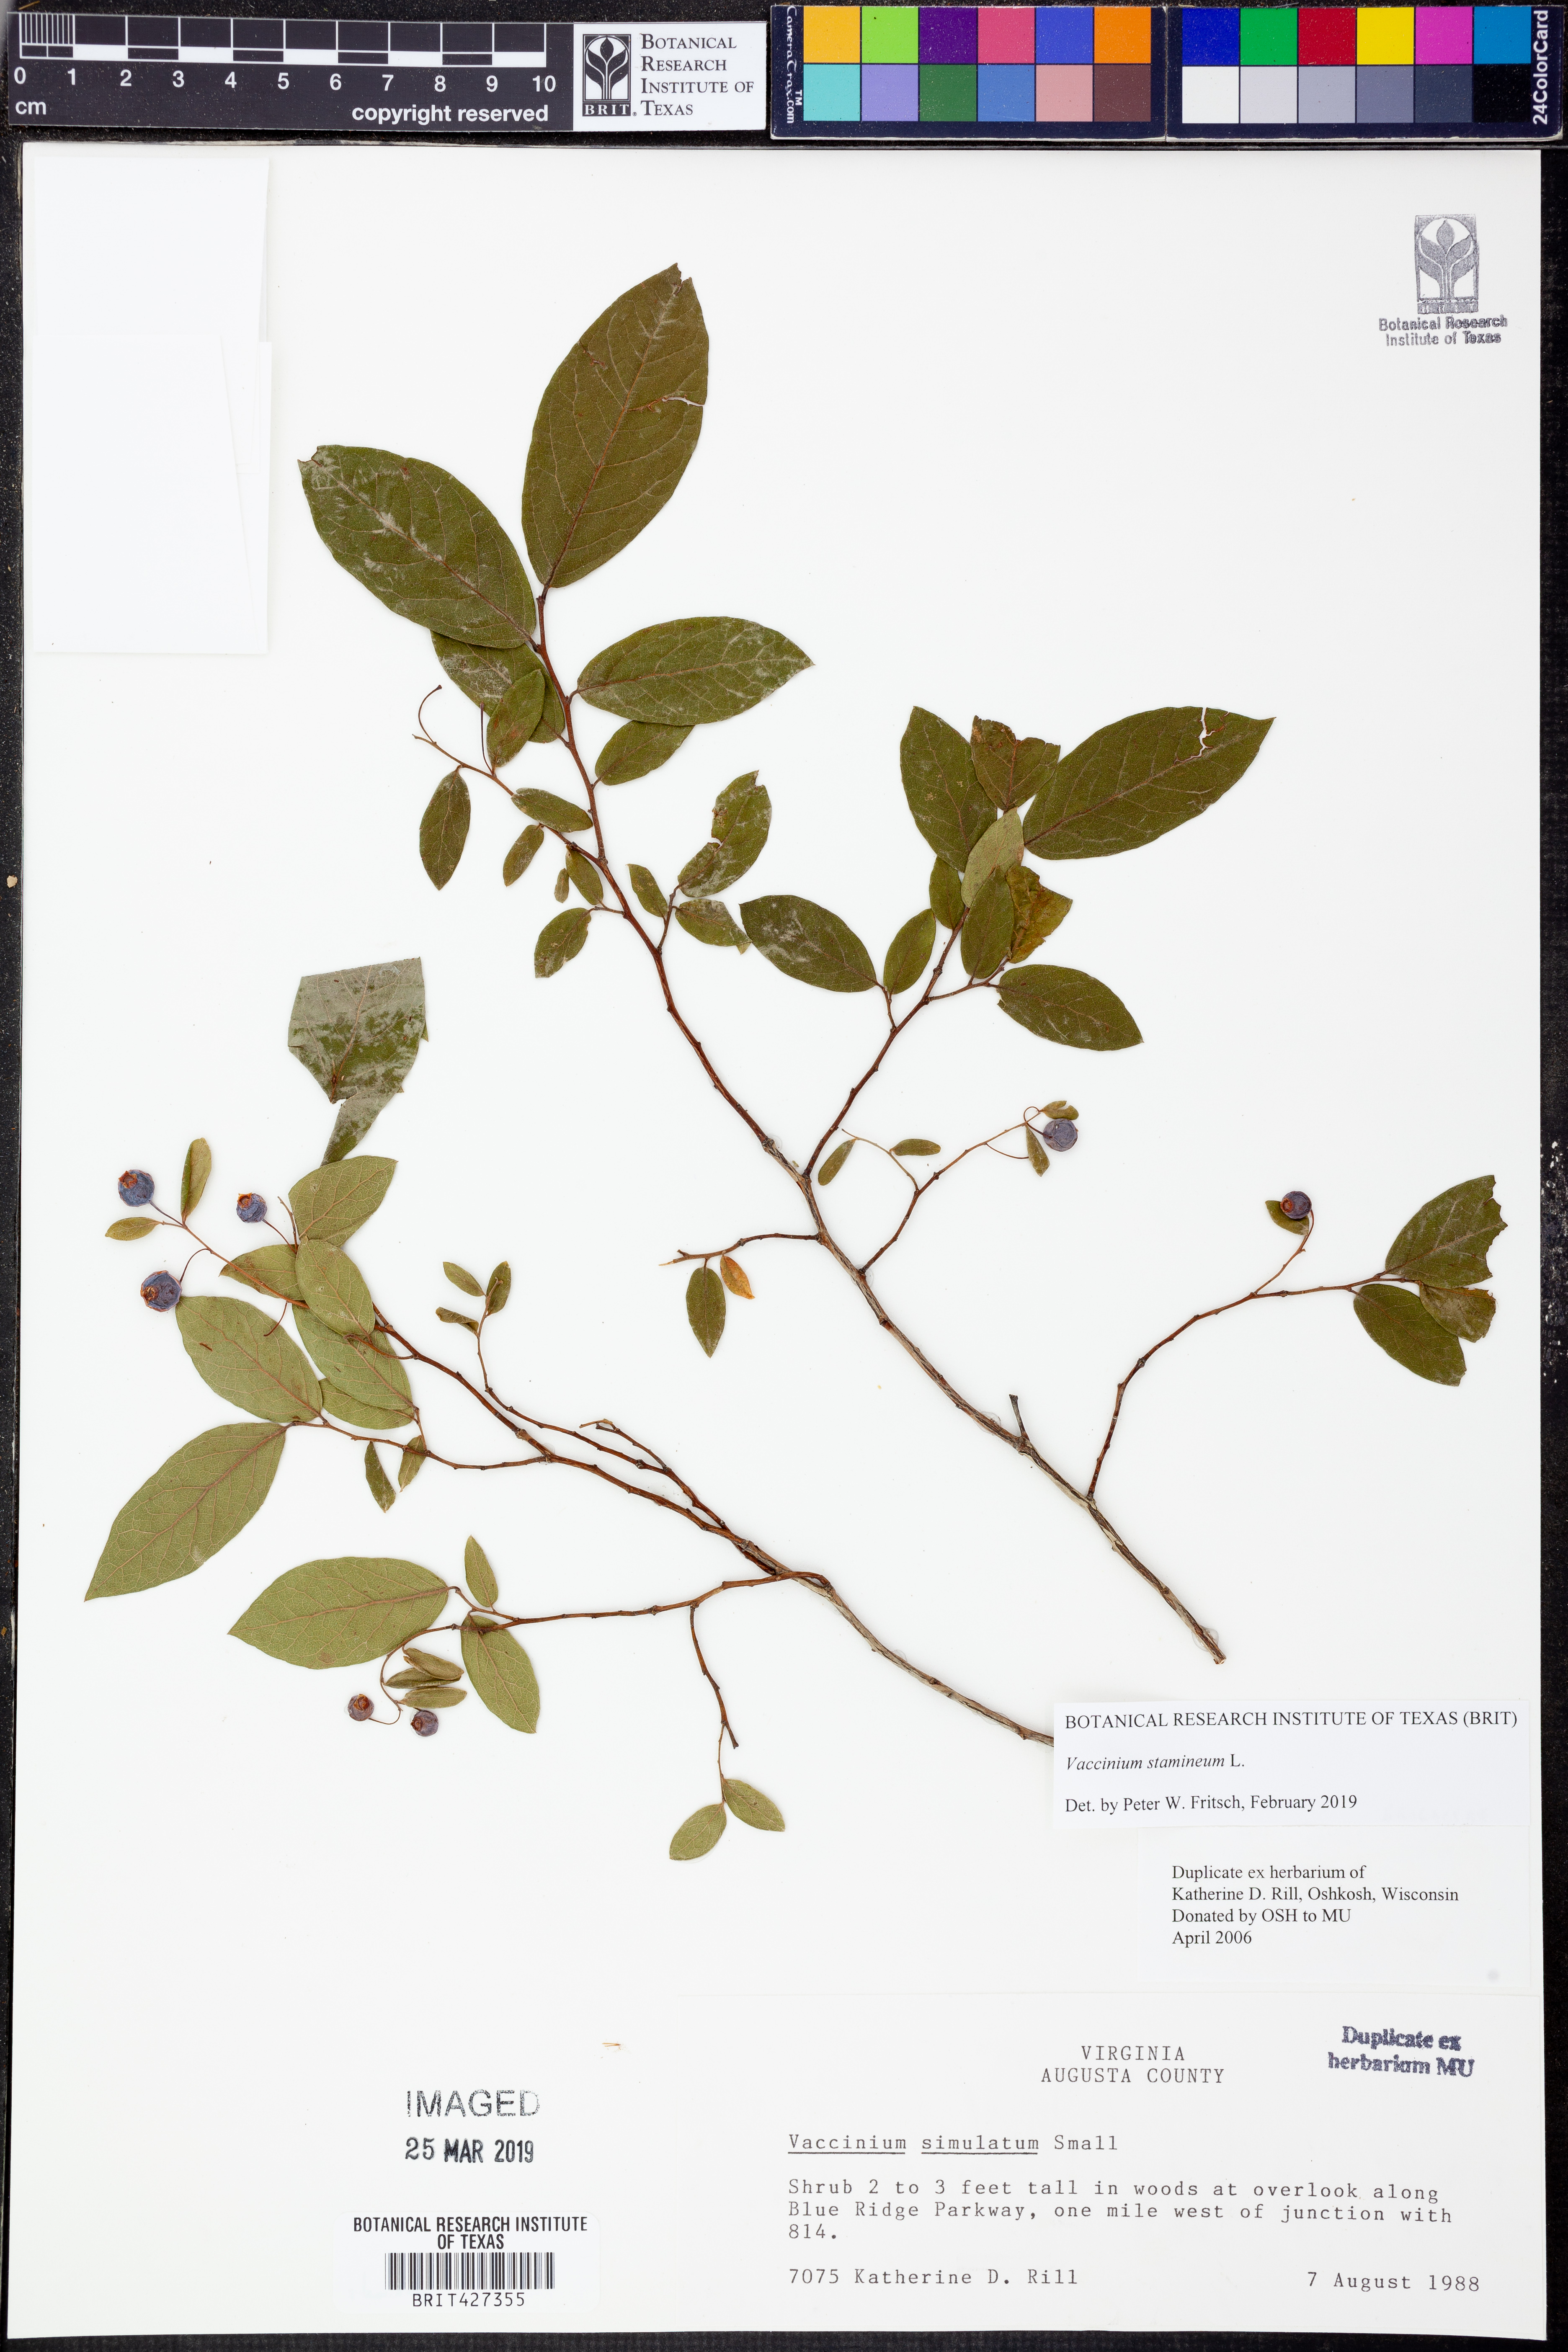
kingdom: Plantae
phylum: Tracheophyta
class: Magnoliopsida
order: Ericales
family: Ericaceae
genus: Vaccinium
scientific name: Vaccinium stamineum
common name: Deerberry
